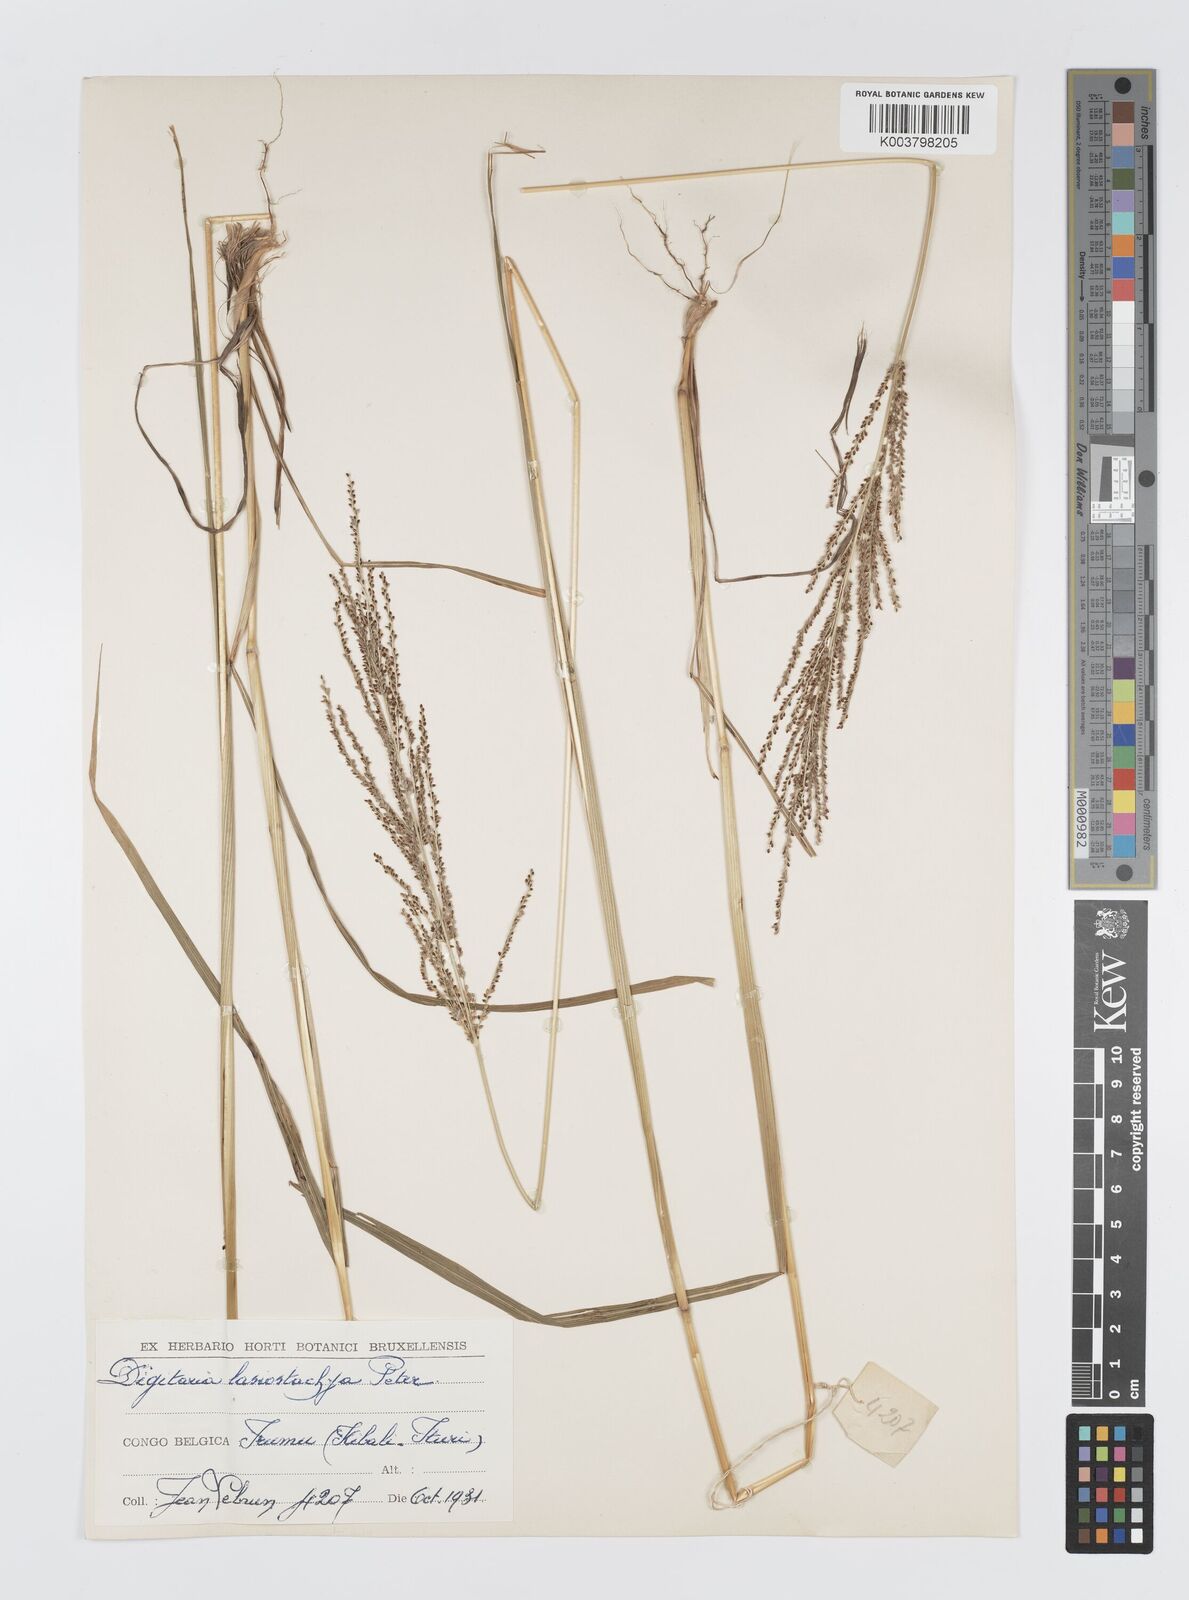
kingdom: Plantae
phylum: Tracheophyta
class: Liliopsida
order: Poales
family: Poaceae
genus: Digitaria
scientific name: Digitaria diagonalis
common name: Brown-seed finger grass
